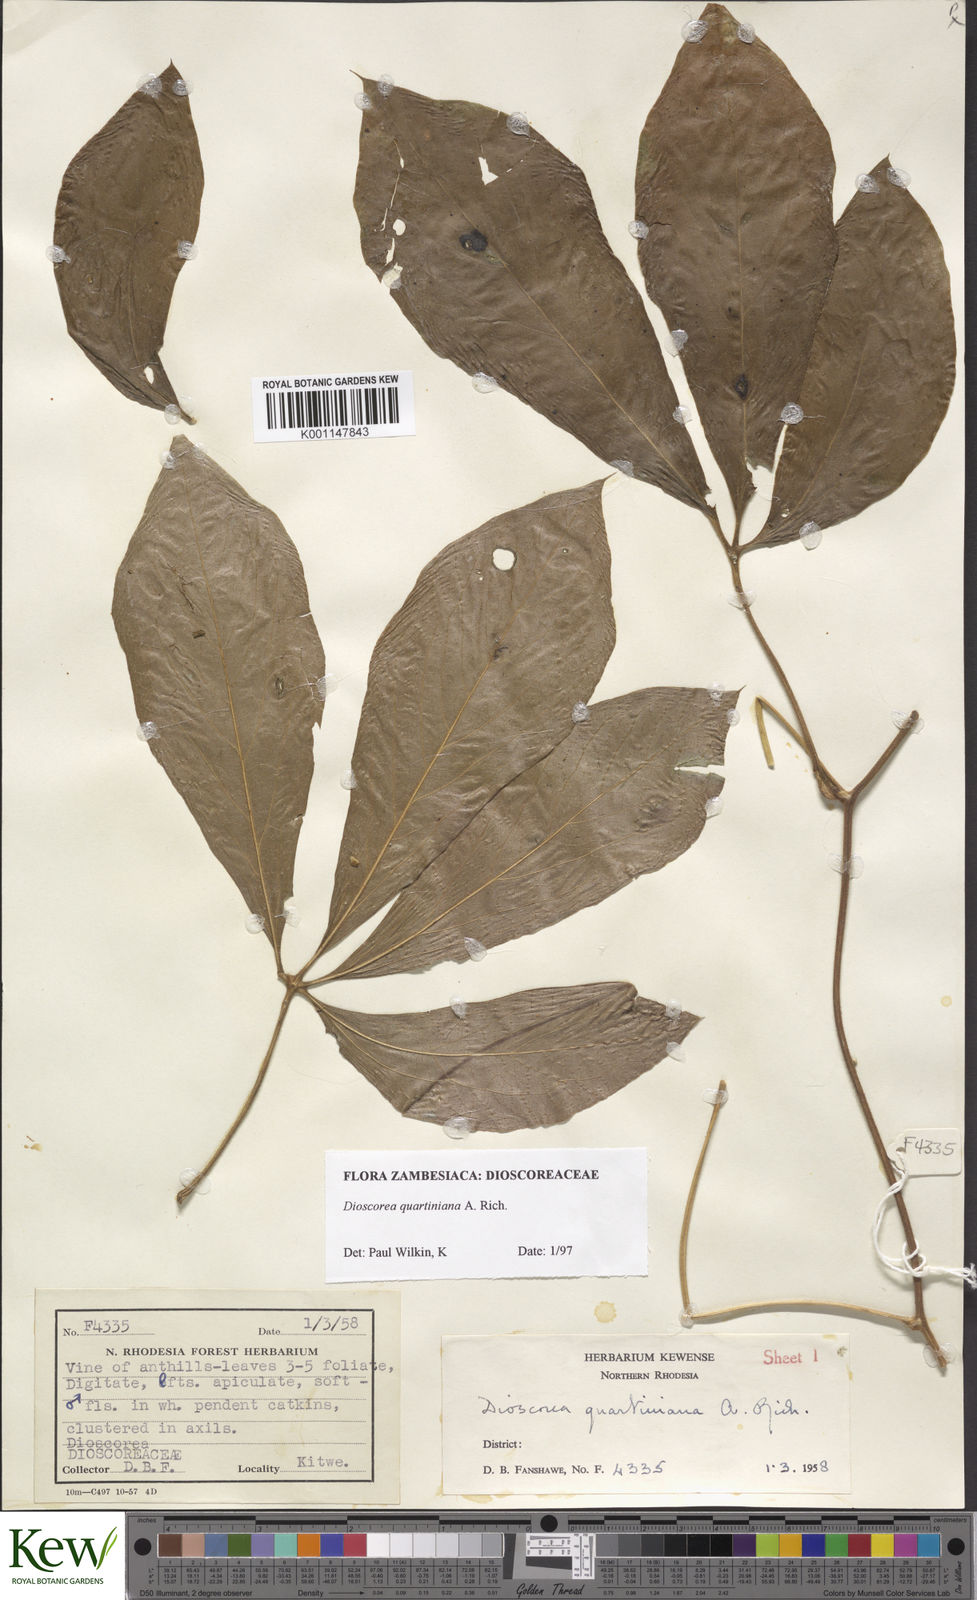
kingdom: Plantae
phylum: Tracheophyta
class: Liliopsida
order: Dioscoreales
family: Dioscoreaceae
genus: Dioscorea
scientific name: Dioscorea quartiniana
